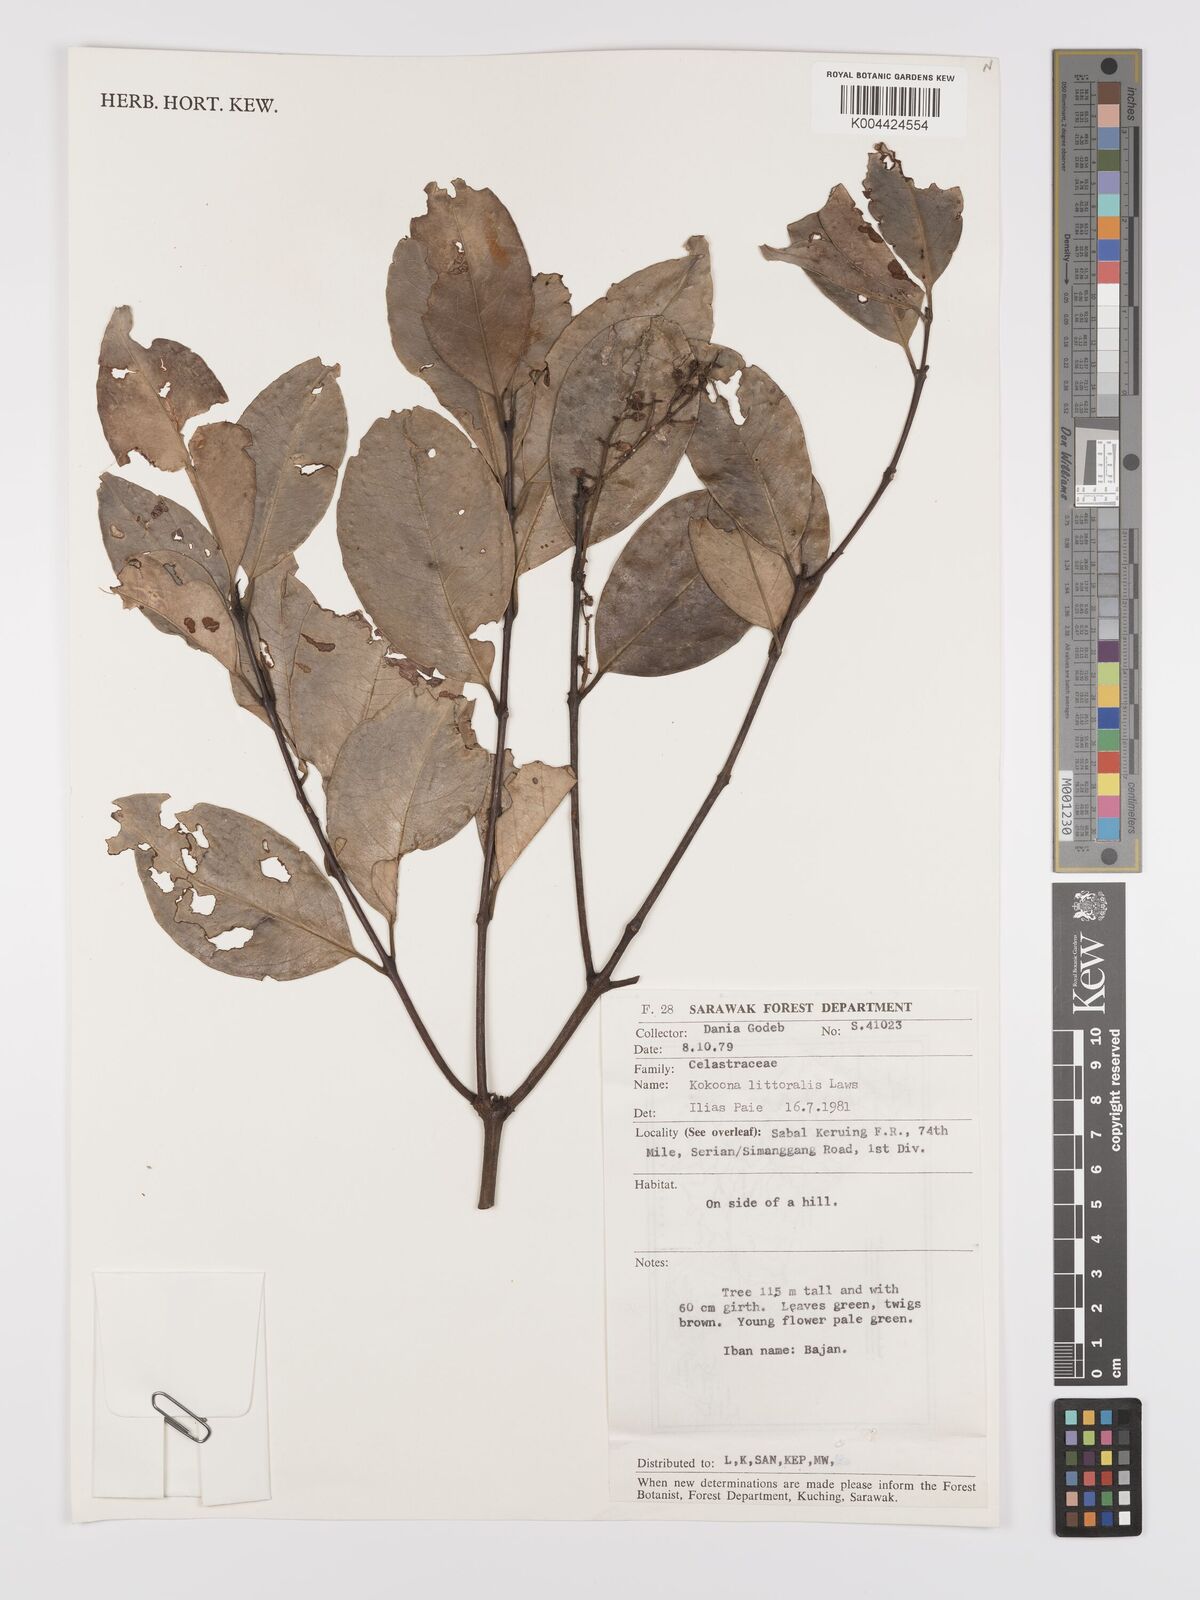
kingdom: Plantae
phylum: Tracheophyta
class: Magnoliopsida
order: Celastrales
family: Celastraceae
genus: Kokoona
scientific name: Kokoona littoralis
